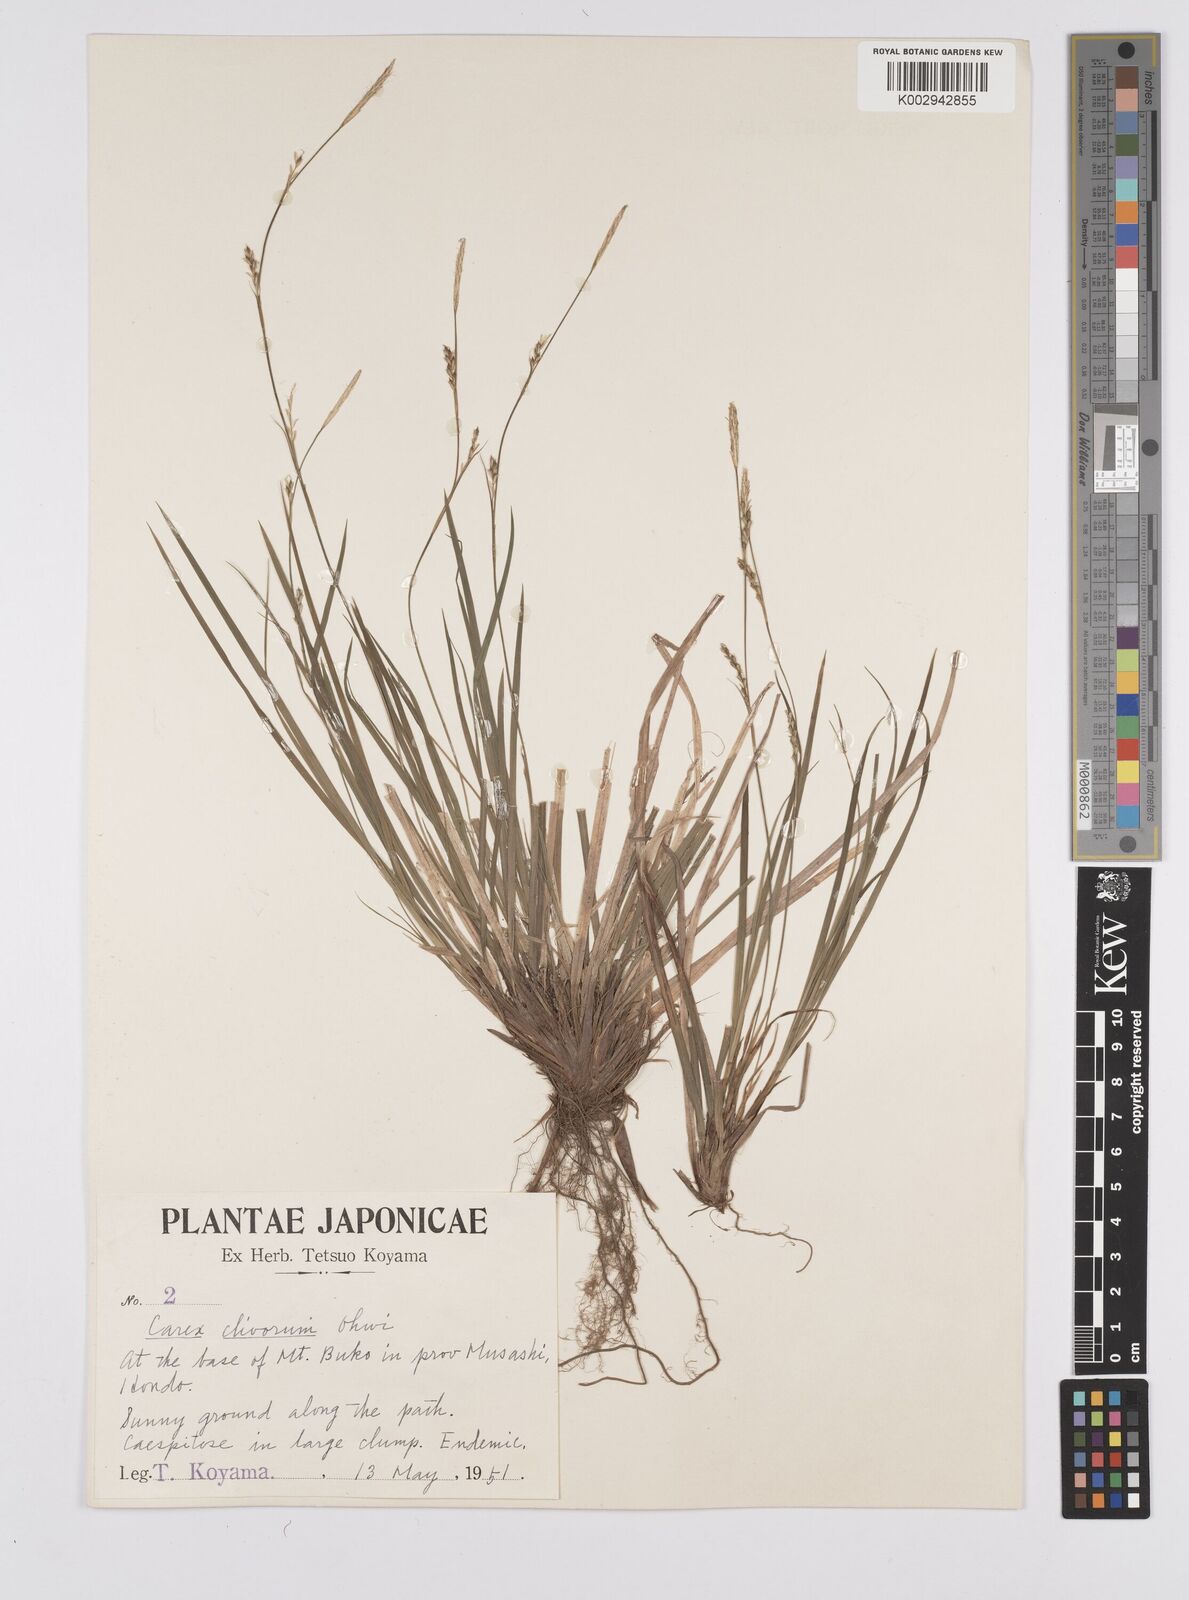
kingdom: Plantae
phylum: Tracheophyta
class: Liliopsida
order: Poales
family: Cyperaceae
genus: Carex
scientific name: Carex clivorum
